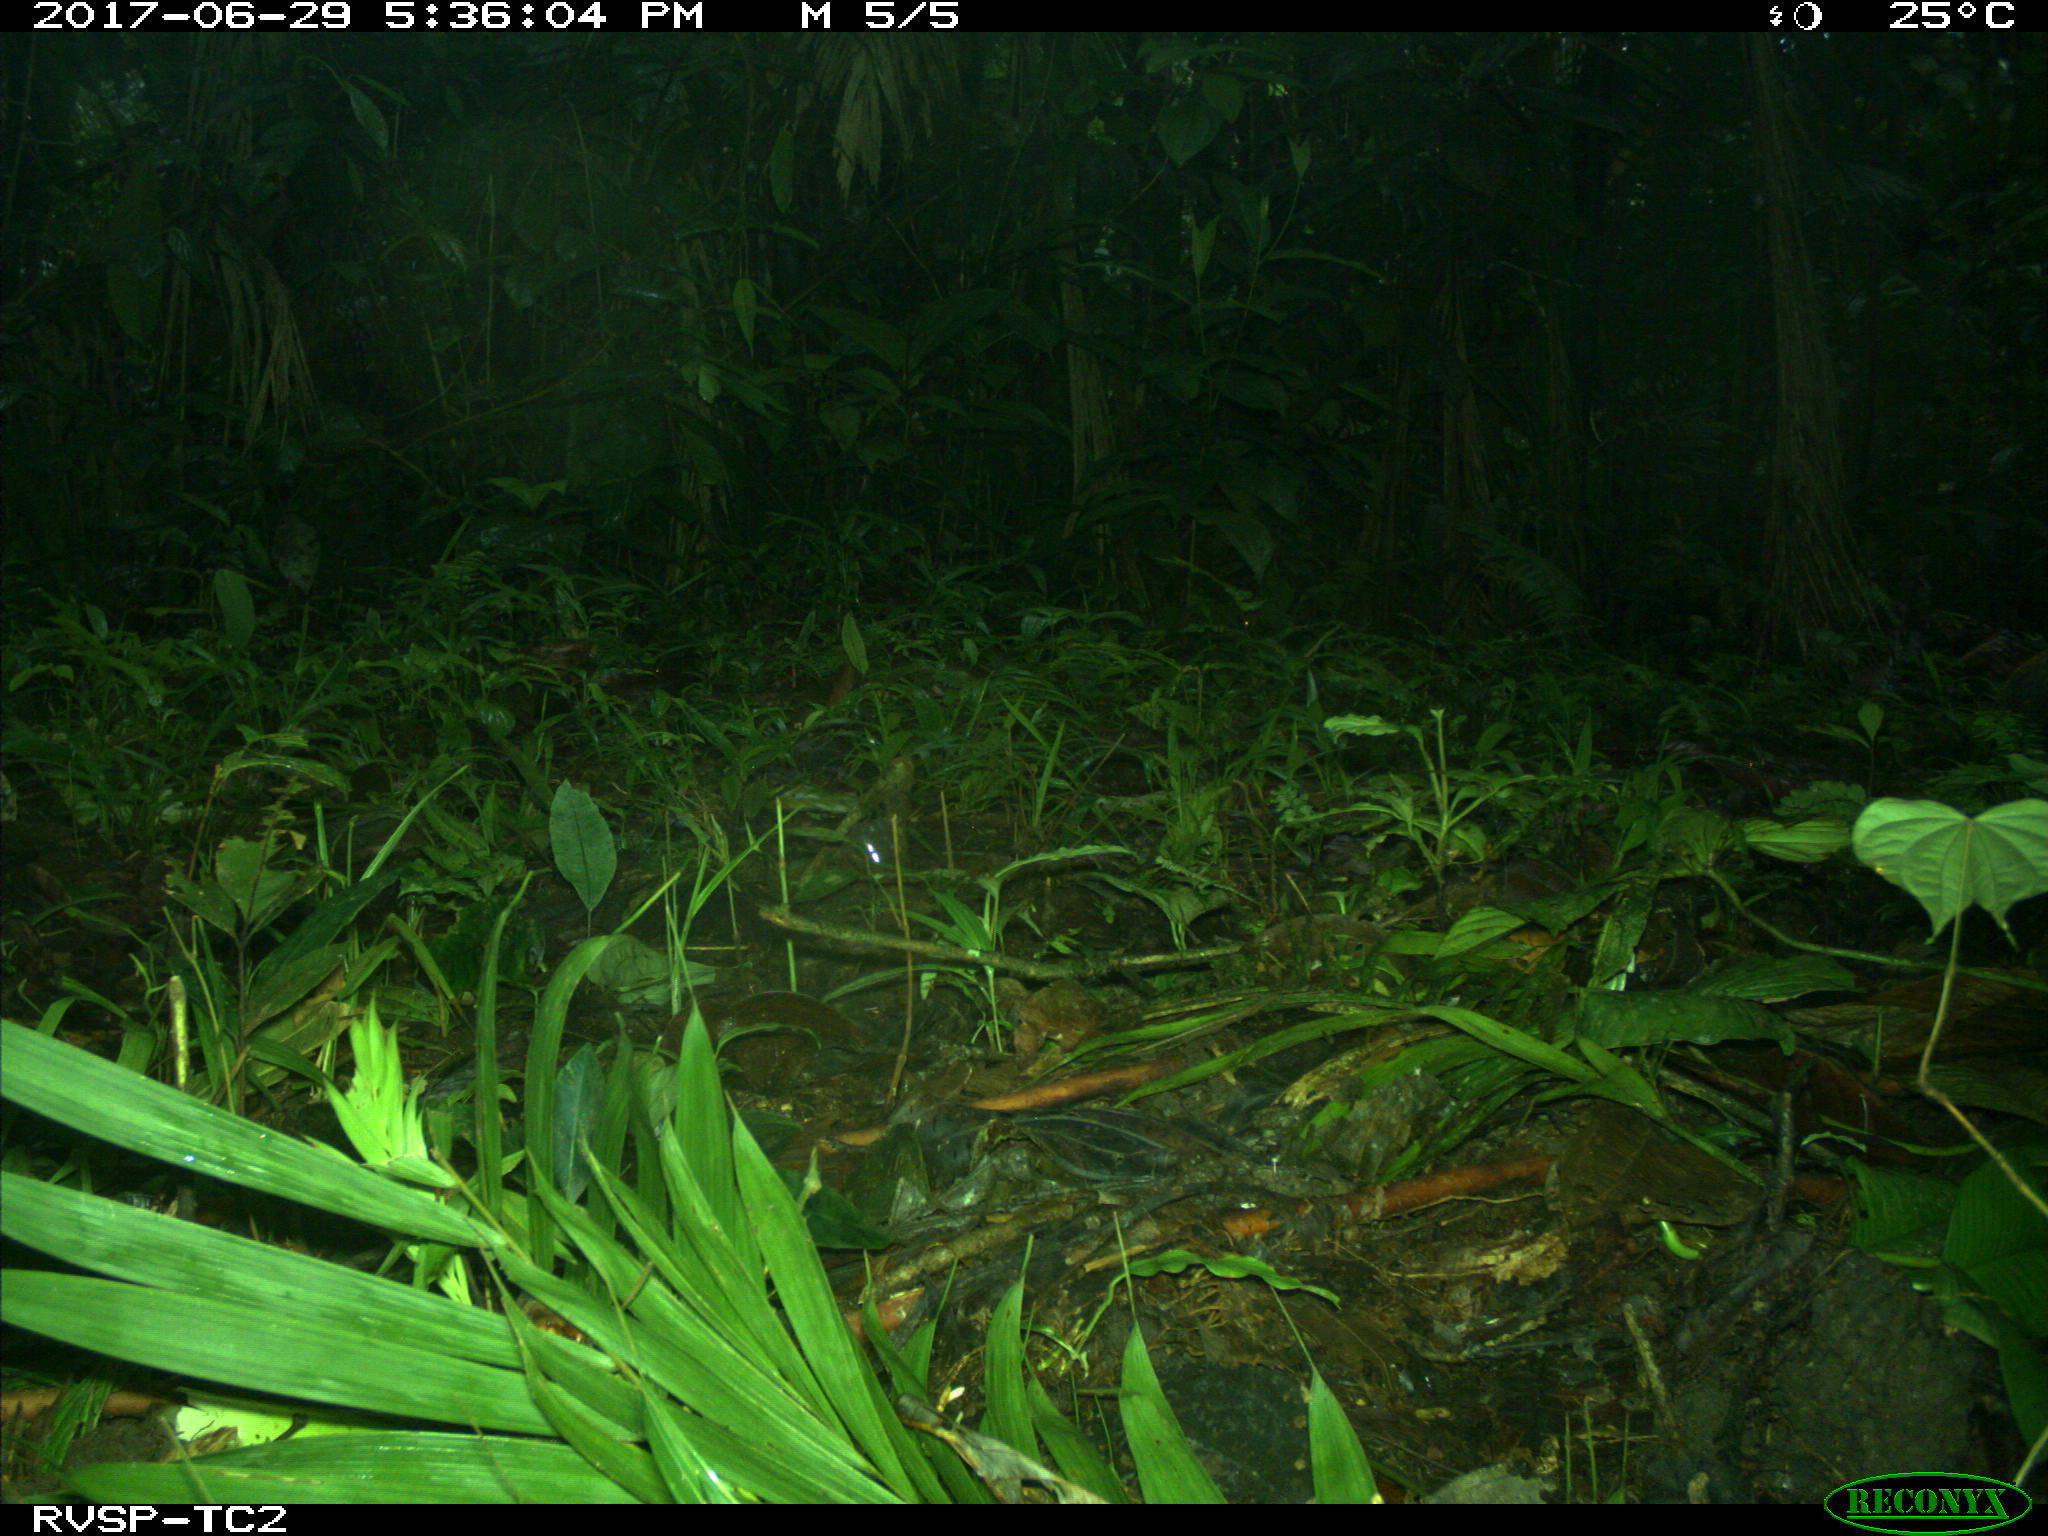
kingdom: Animalia
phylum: Chordata
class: Mammalia
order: Rodentia
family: Dasyproctidae
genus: Dasyprocta
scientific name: Dasyprocta punctata
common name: Central american agouti
